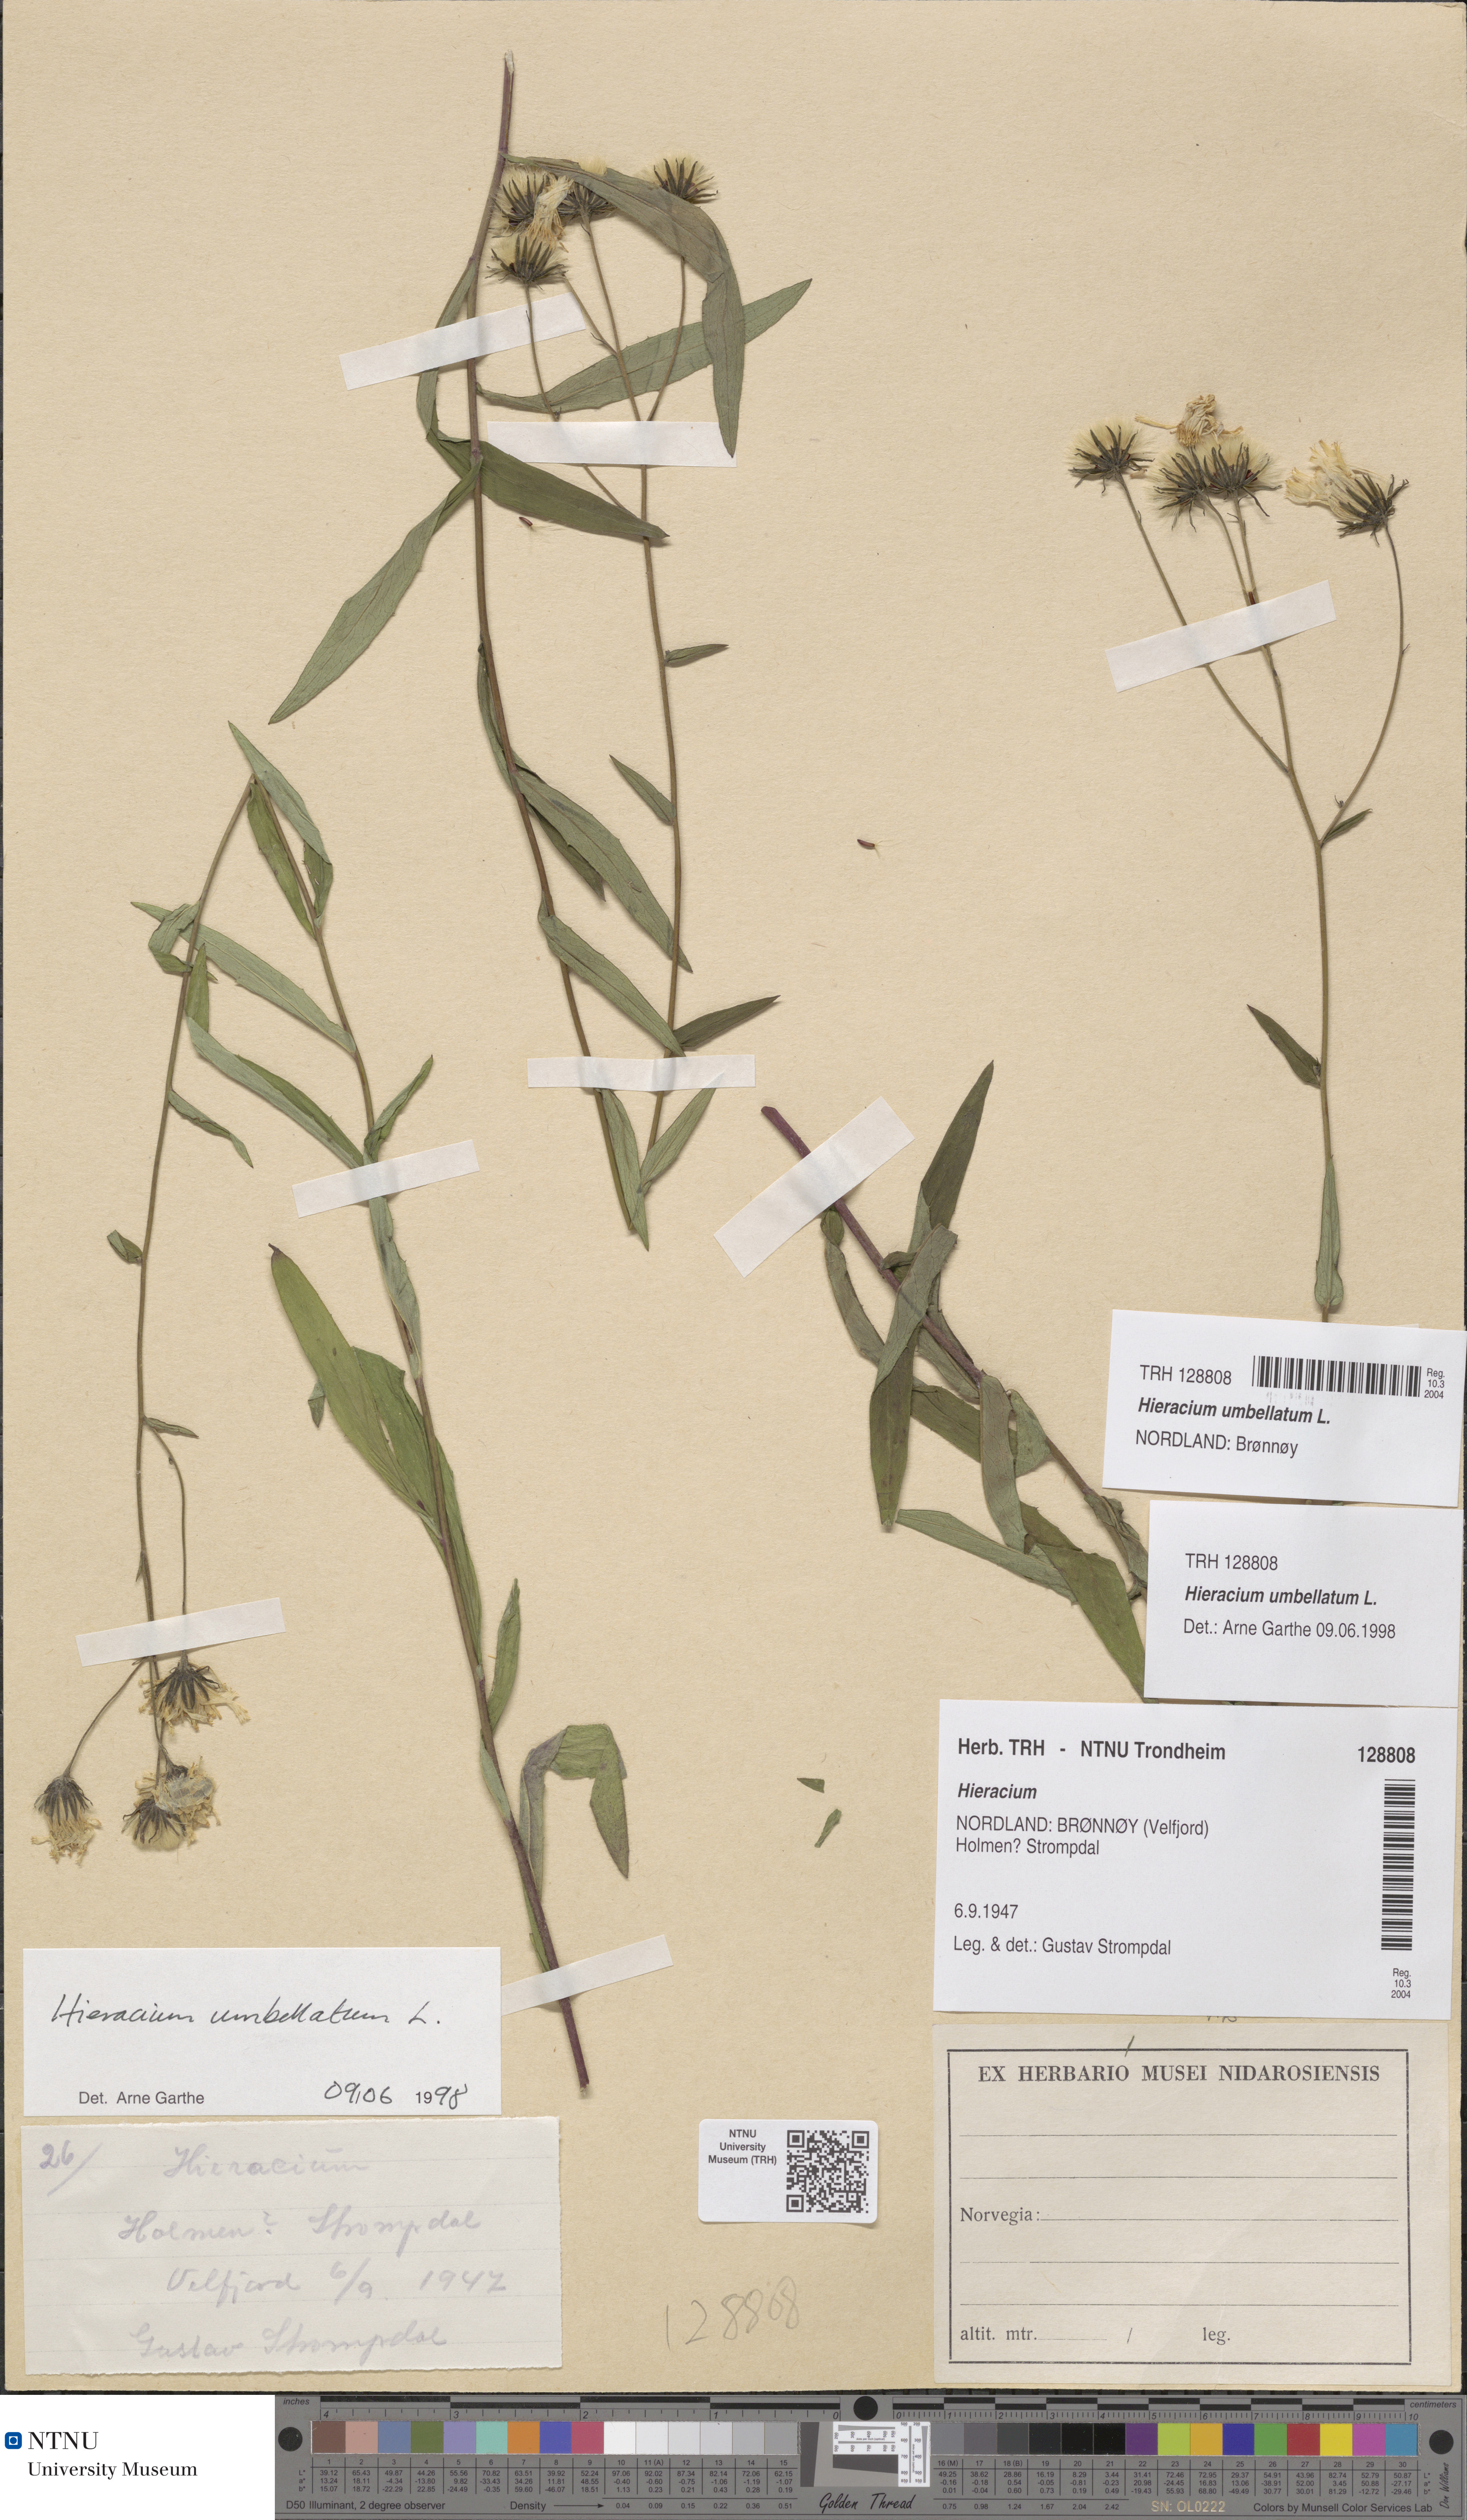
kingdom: Plantae
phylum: Tracheophyta
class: Magnoliopsida
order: Asterales
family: Asteraceae
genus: Hieracium
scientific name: Hieracium umbellatum
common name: Northern hawkweed
